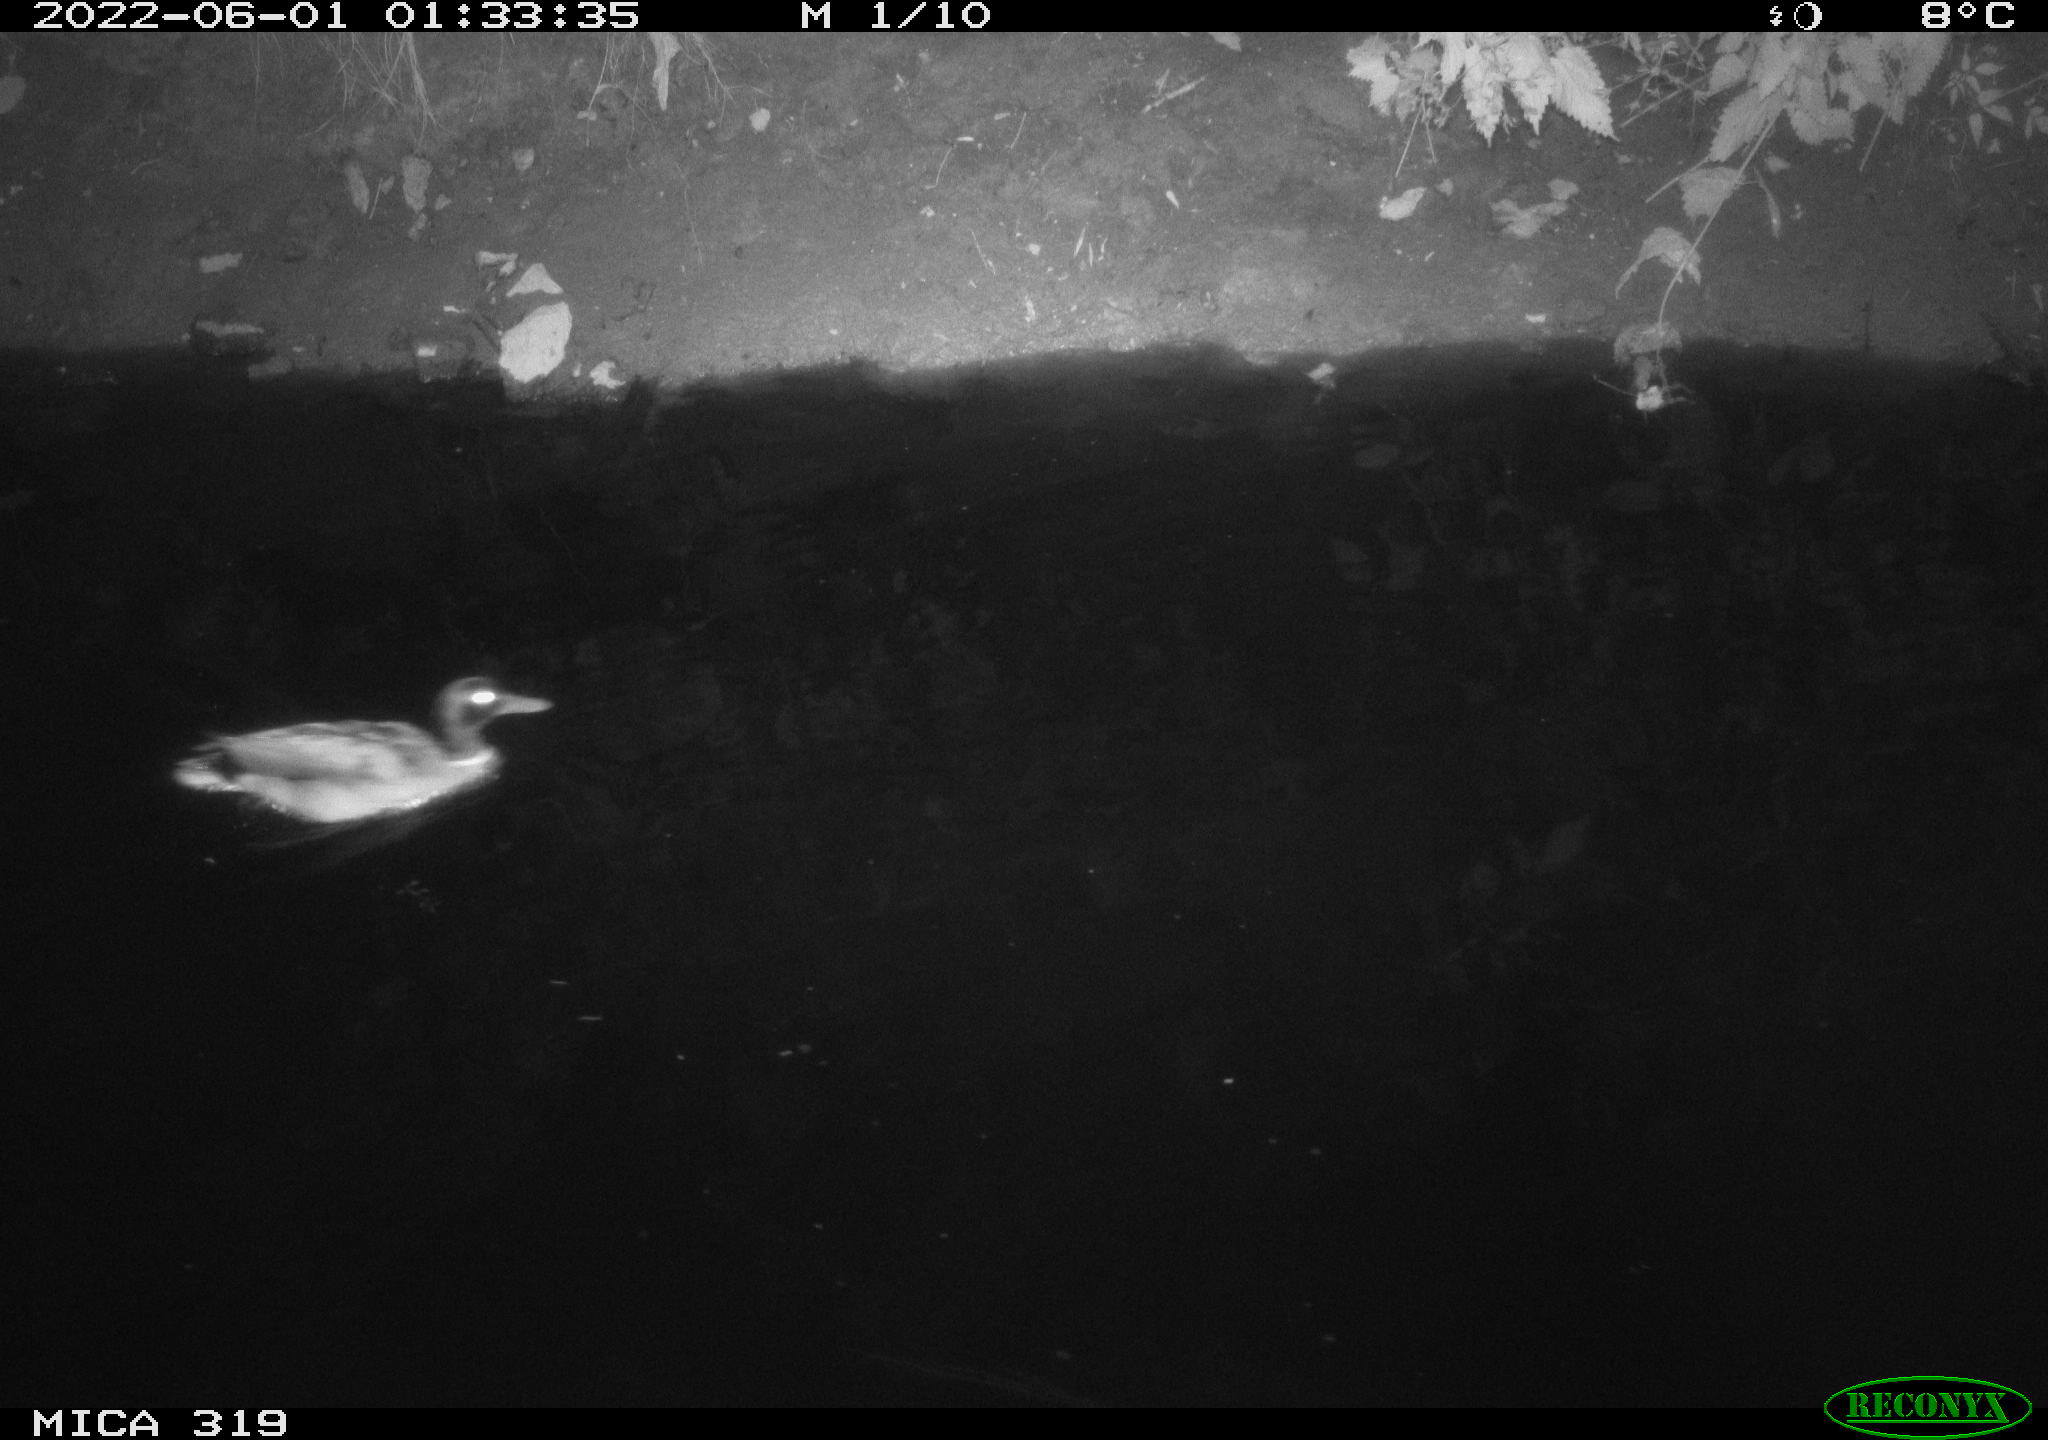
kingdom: Animalia
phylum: Chordata
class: Aves
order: Anseriformes
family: Anatidae
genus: Anas
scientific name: Anas
